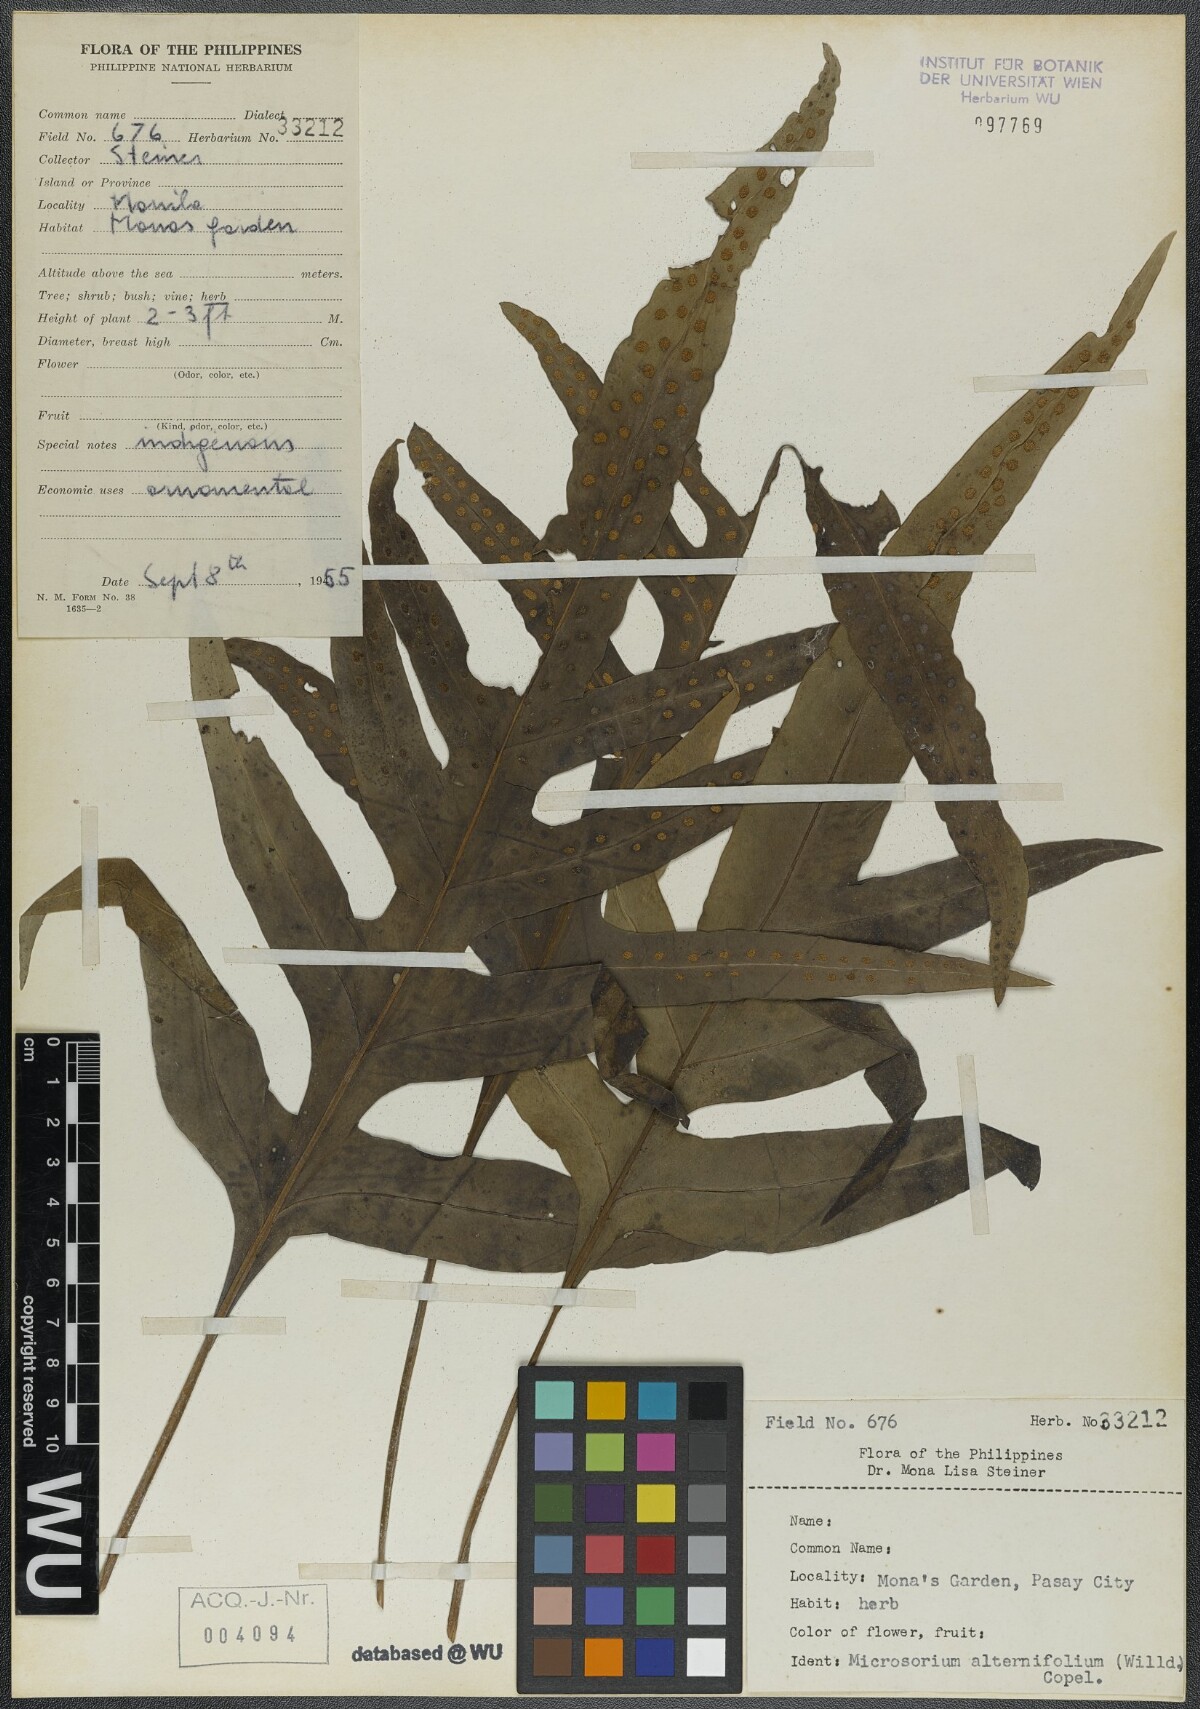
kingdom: Plantae
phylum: Tracheophyta
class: Polypodiopsida
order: Polypodiales
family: Polypodiaceae
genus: Microsorum
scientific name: Microsorum scolopendria
